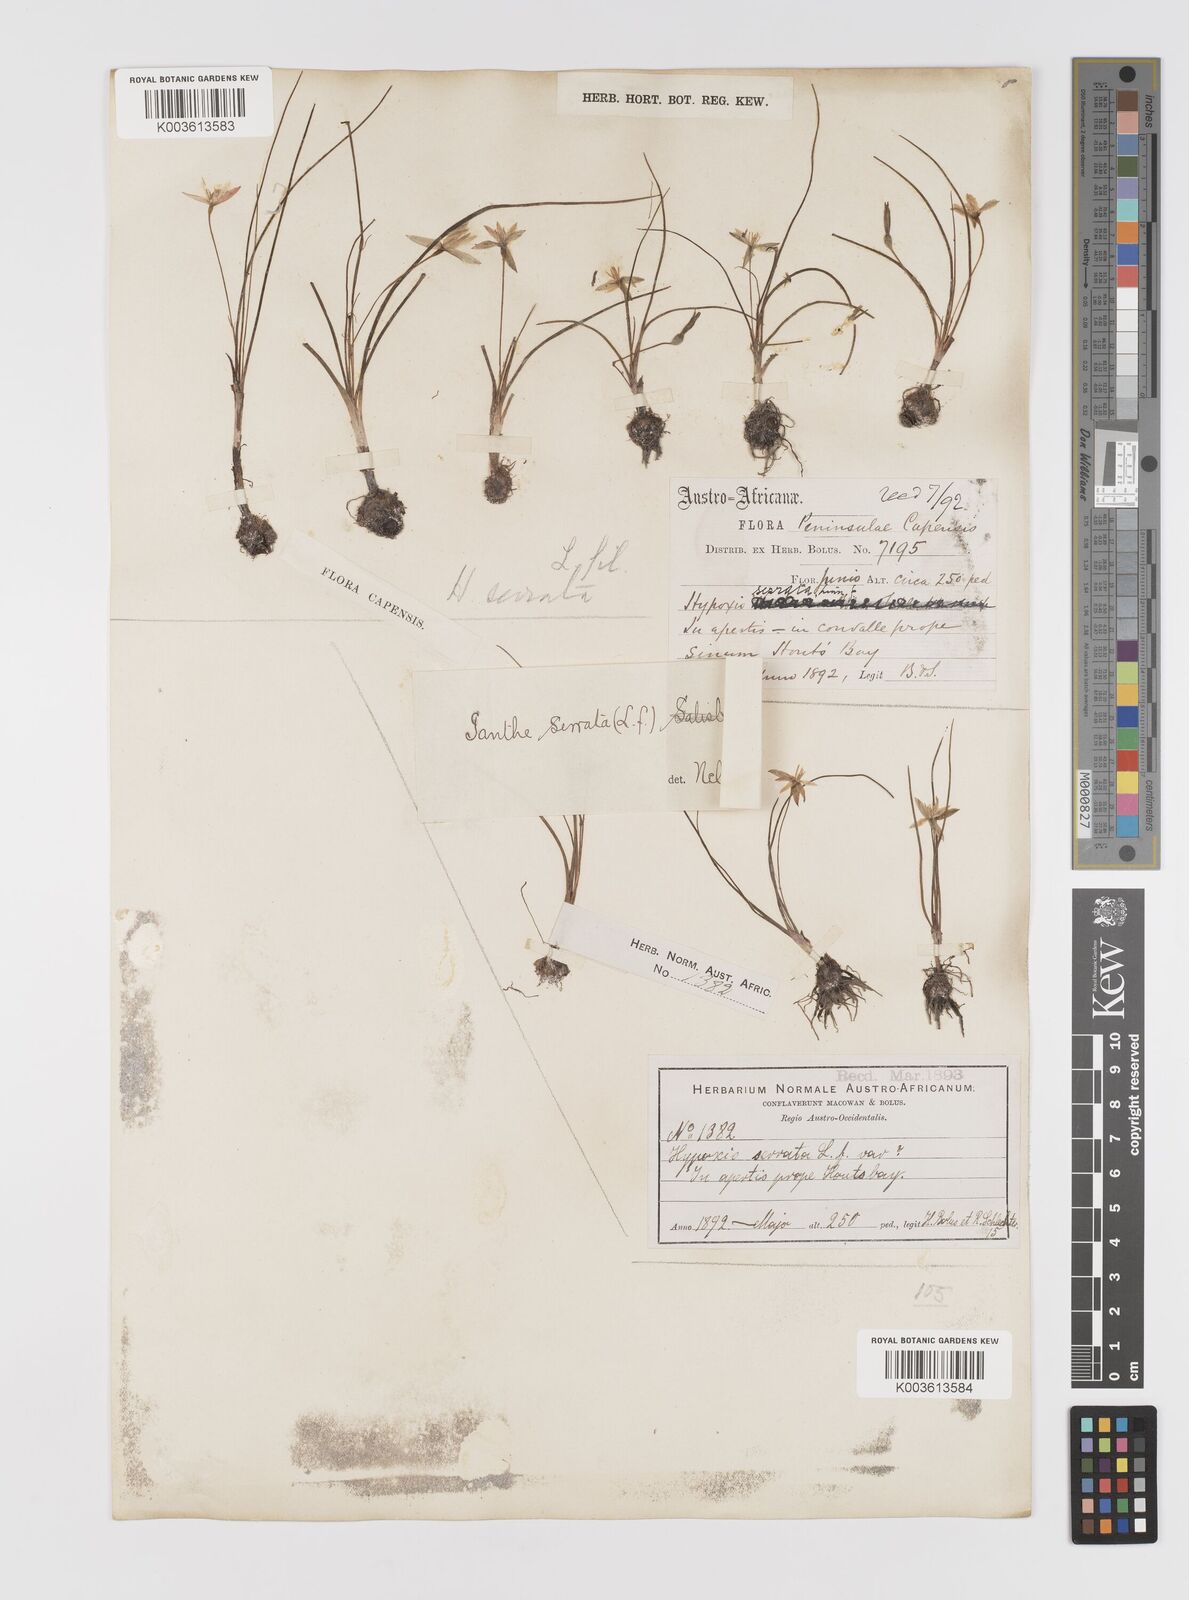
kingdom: Plantae
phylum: Tracheophyta
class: Liliopsida
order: Asparagales
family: Hypoxidaceae
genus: Pauridia
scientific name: Pauridia serrata
